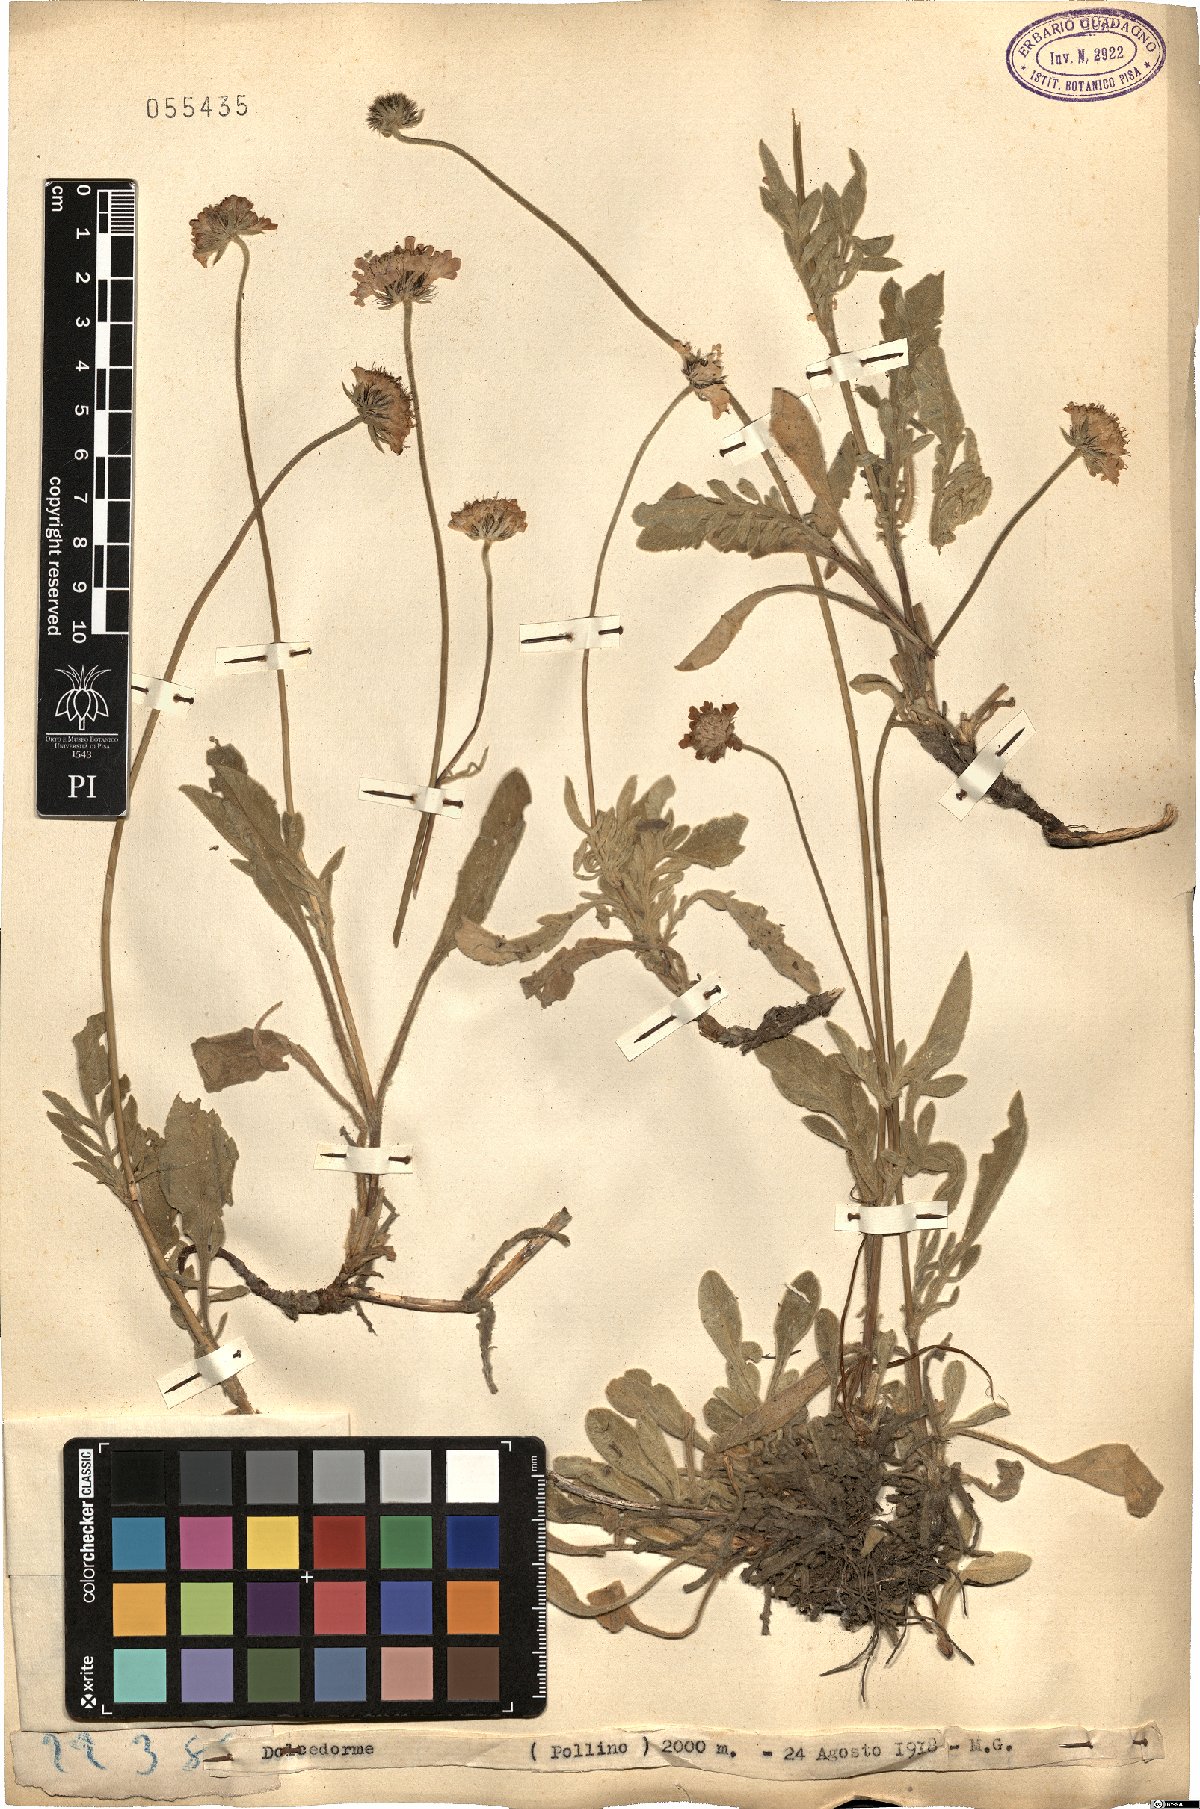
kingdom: Plantae
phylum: Tracheophyta
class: Magnoliopsida
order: Dipsacales
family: Caprifoliaceae
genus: Scabiosa
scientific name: Scabiosa
